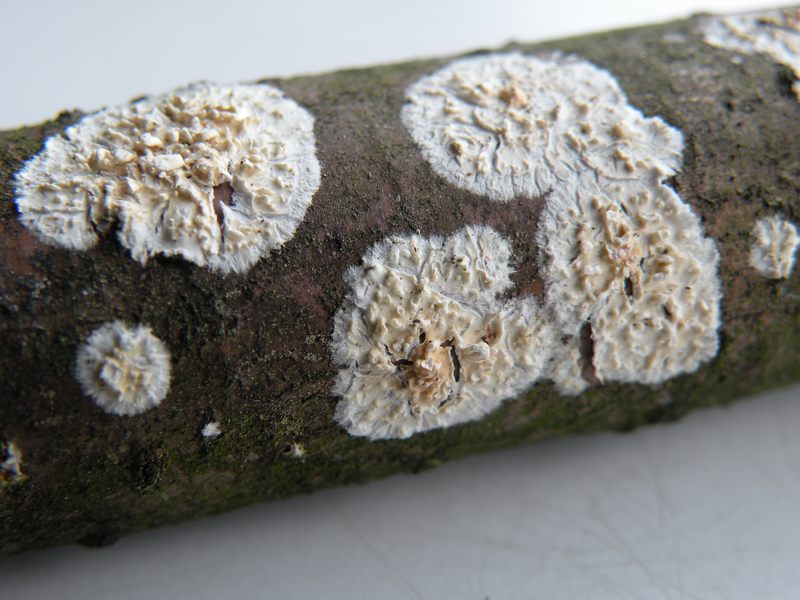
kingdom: Fungi
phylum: Basidiomycota
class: Agaricomycetes
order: Hymenochaetales
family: Schizoporaceae
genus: Xylodon
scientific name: Xylodon radula
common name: grovtandet kalkskind
